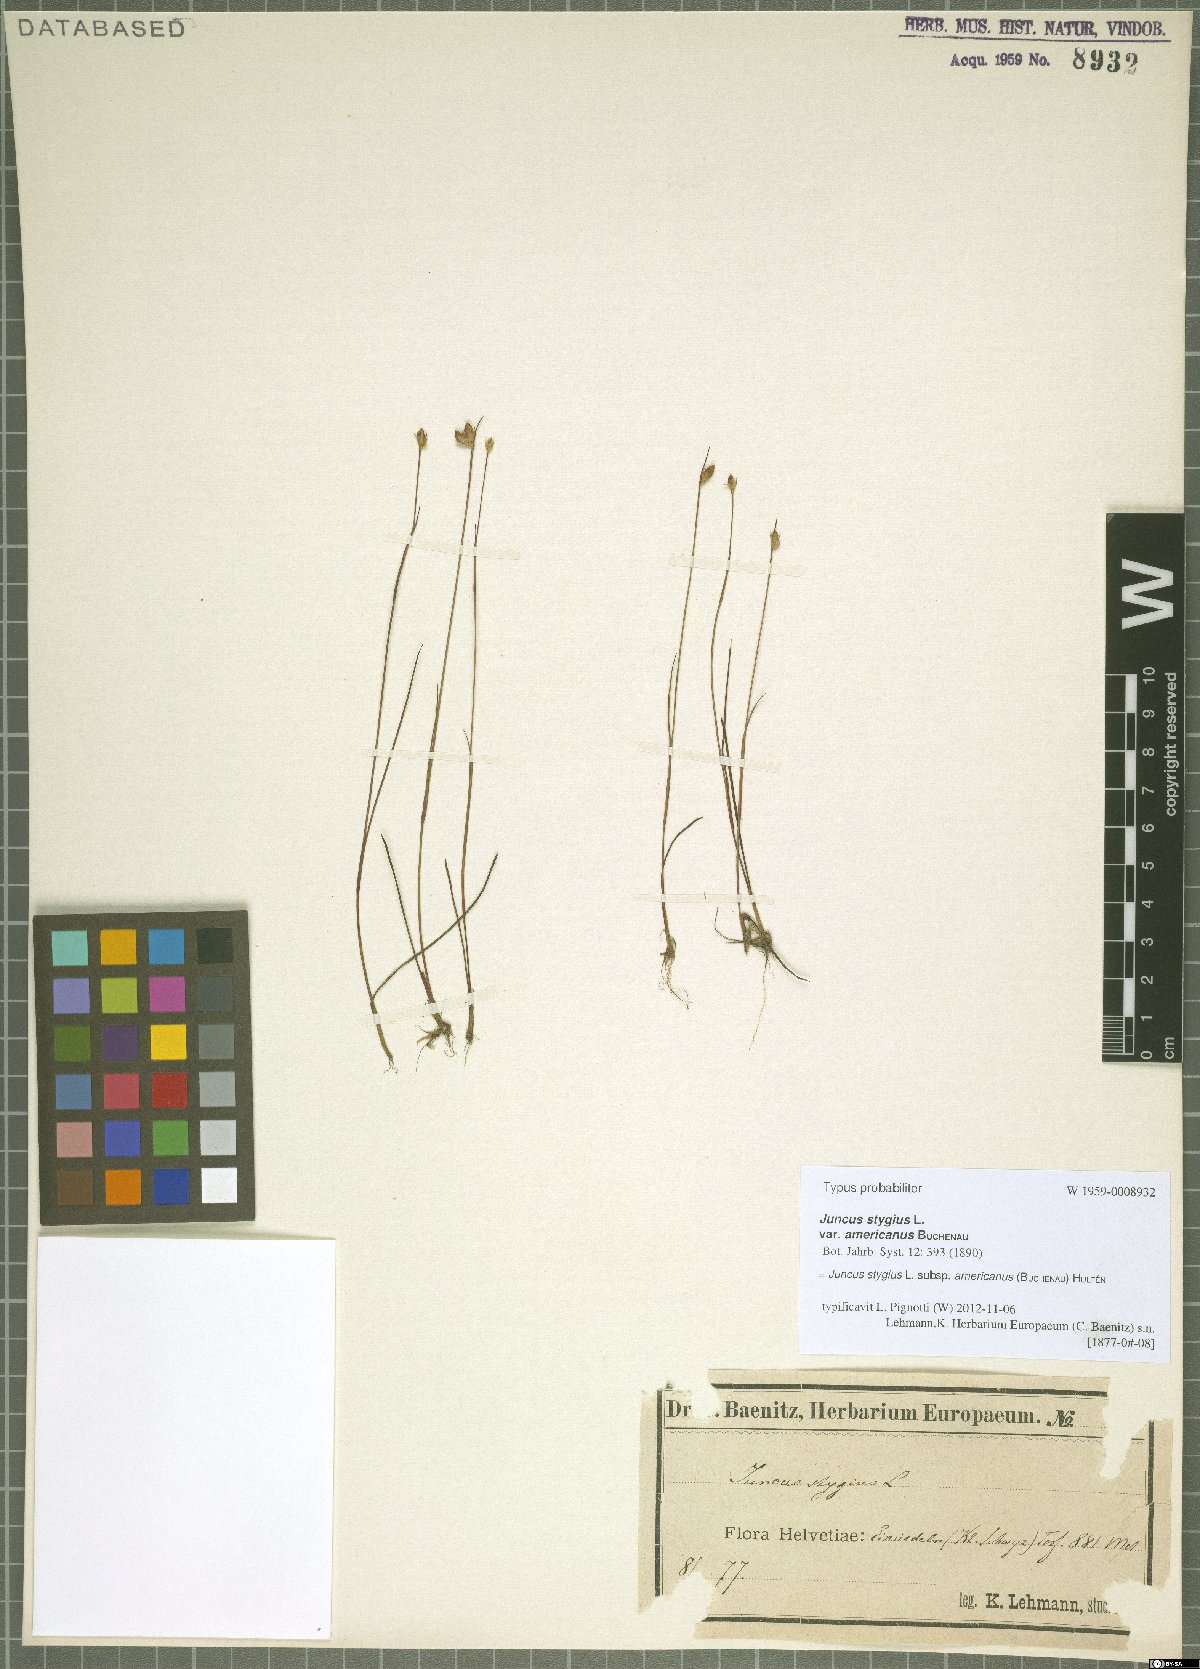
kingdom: Plantae
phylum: Tracheophyta
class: Liliopsida
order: Poales
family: Juncaceae
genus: Juncus
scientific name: Juncus stygius
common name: Bog rush
